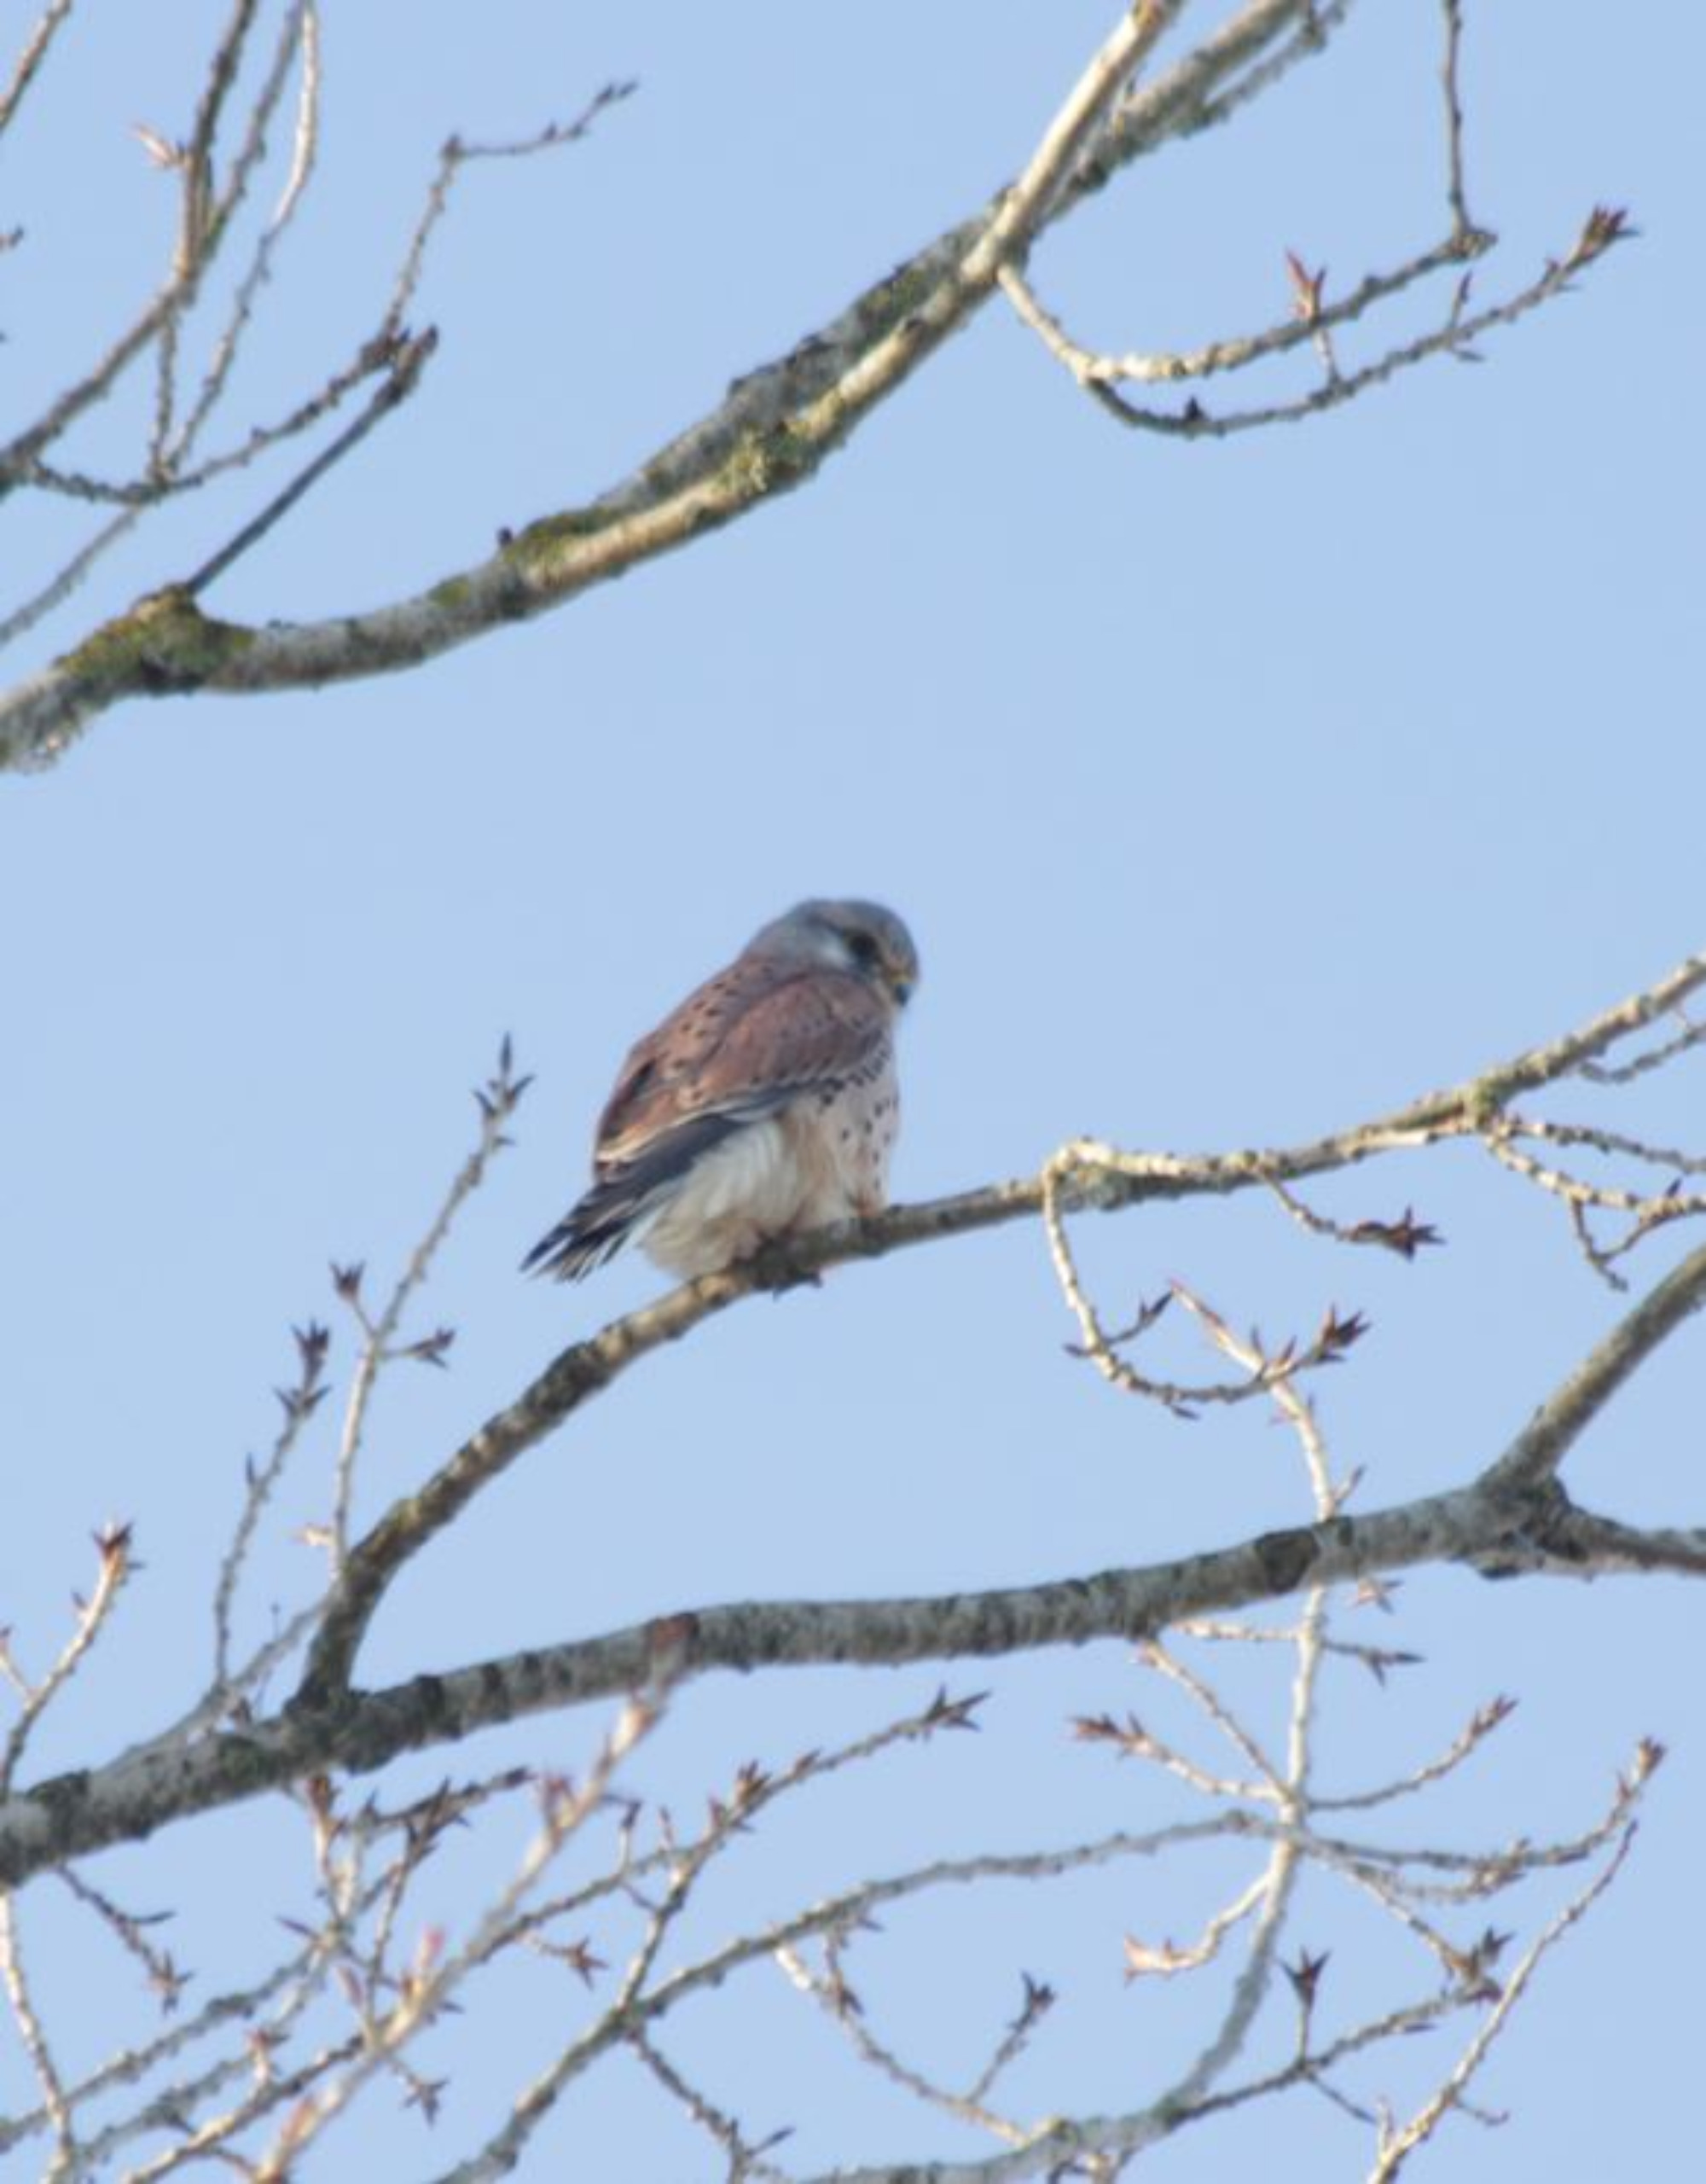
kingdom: Animalia
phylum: Chordata
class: Aves
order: Falconiformes
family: Falconidae
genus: Falco
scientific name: Falco tinnunculus
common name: Tårnfalk
